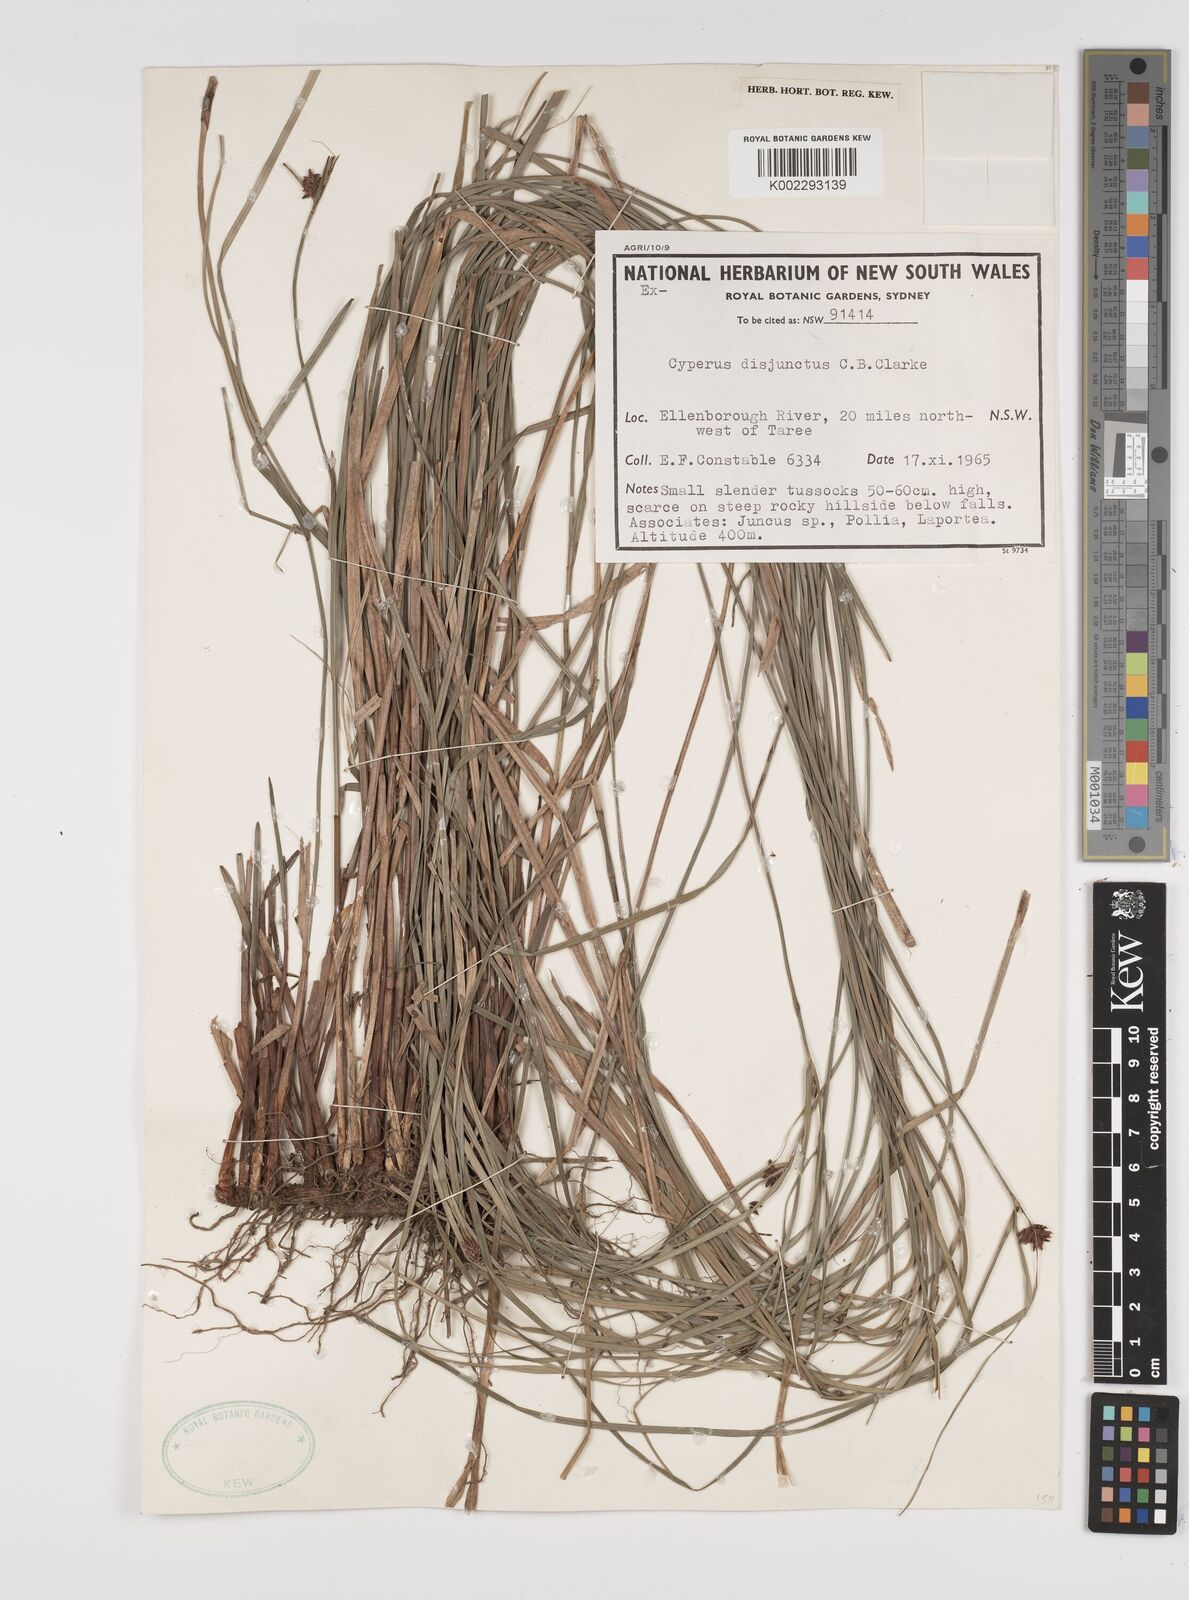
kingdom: Plantae
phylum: Tracheophyta
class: Liliopsida
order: Poales
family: Cyperaceae
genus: Cyperus
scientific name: Cyperus disjunctus
